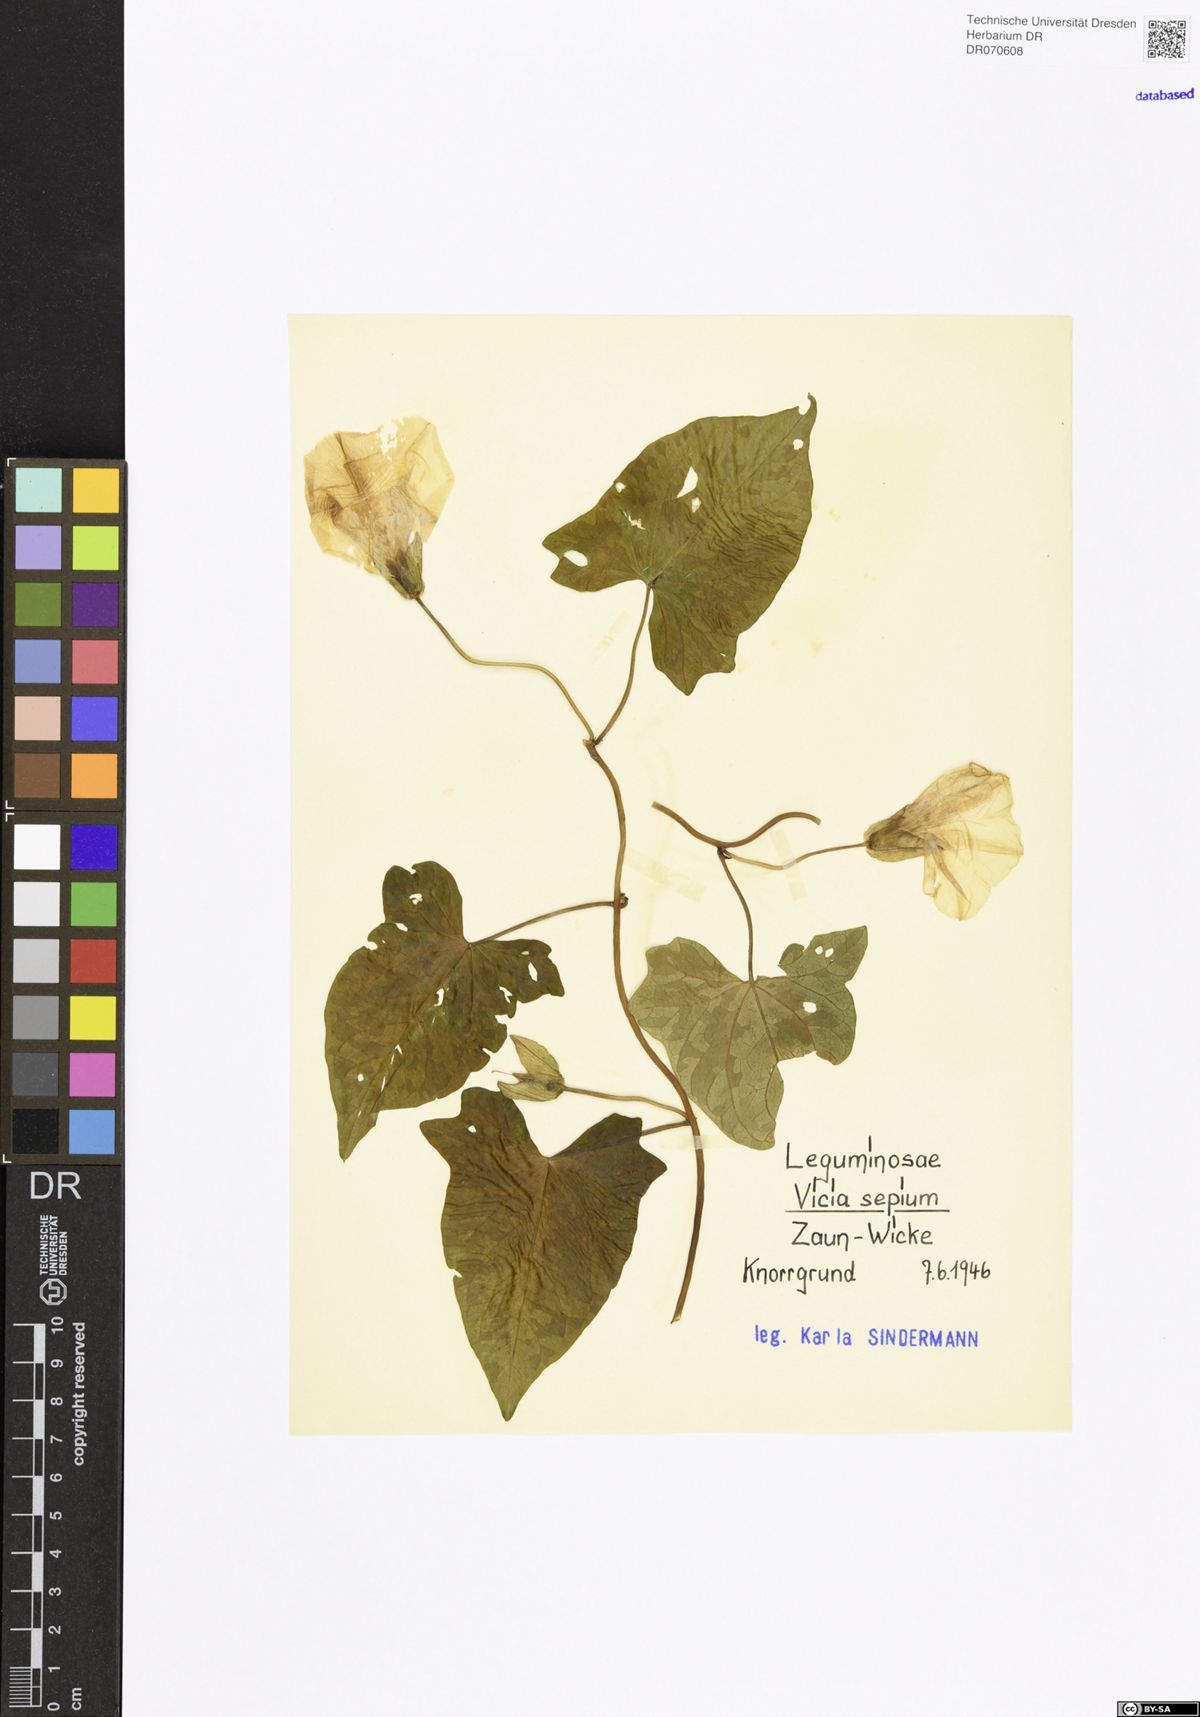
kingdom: Plantae
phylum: Tracheophyta
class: Magnoliopsida
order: Fabales
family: Fabaceae
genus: Vicia
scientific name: Vicia sepium
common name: Bush vetch
